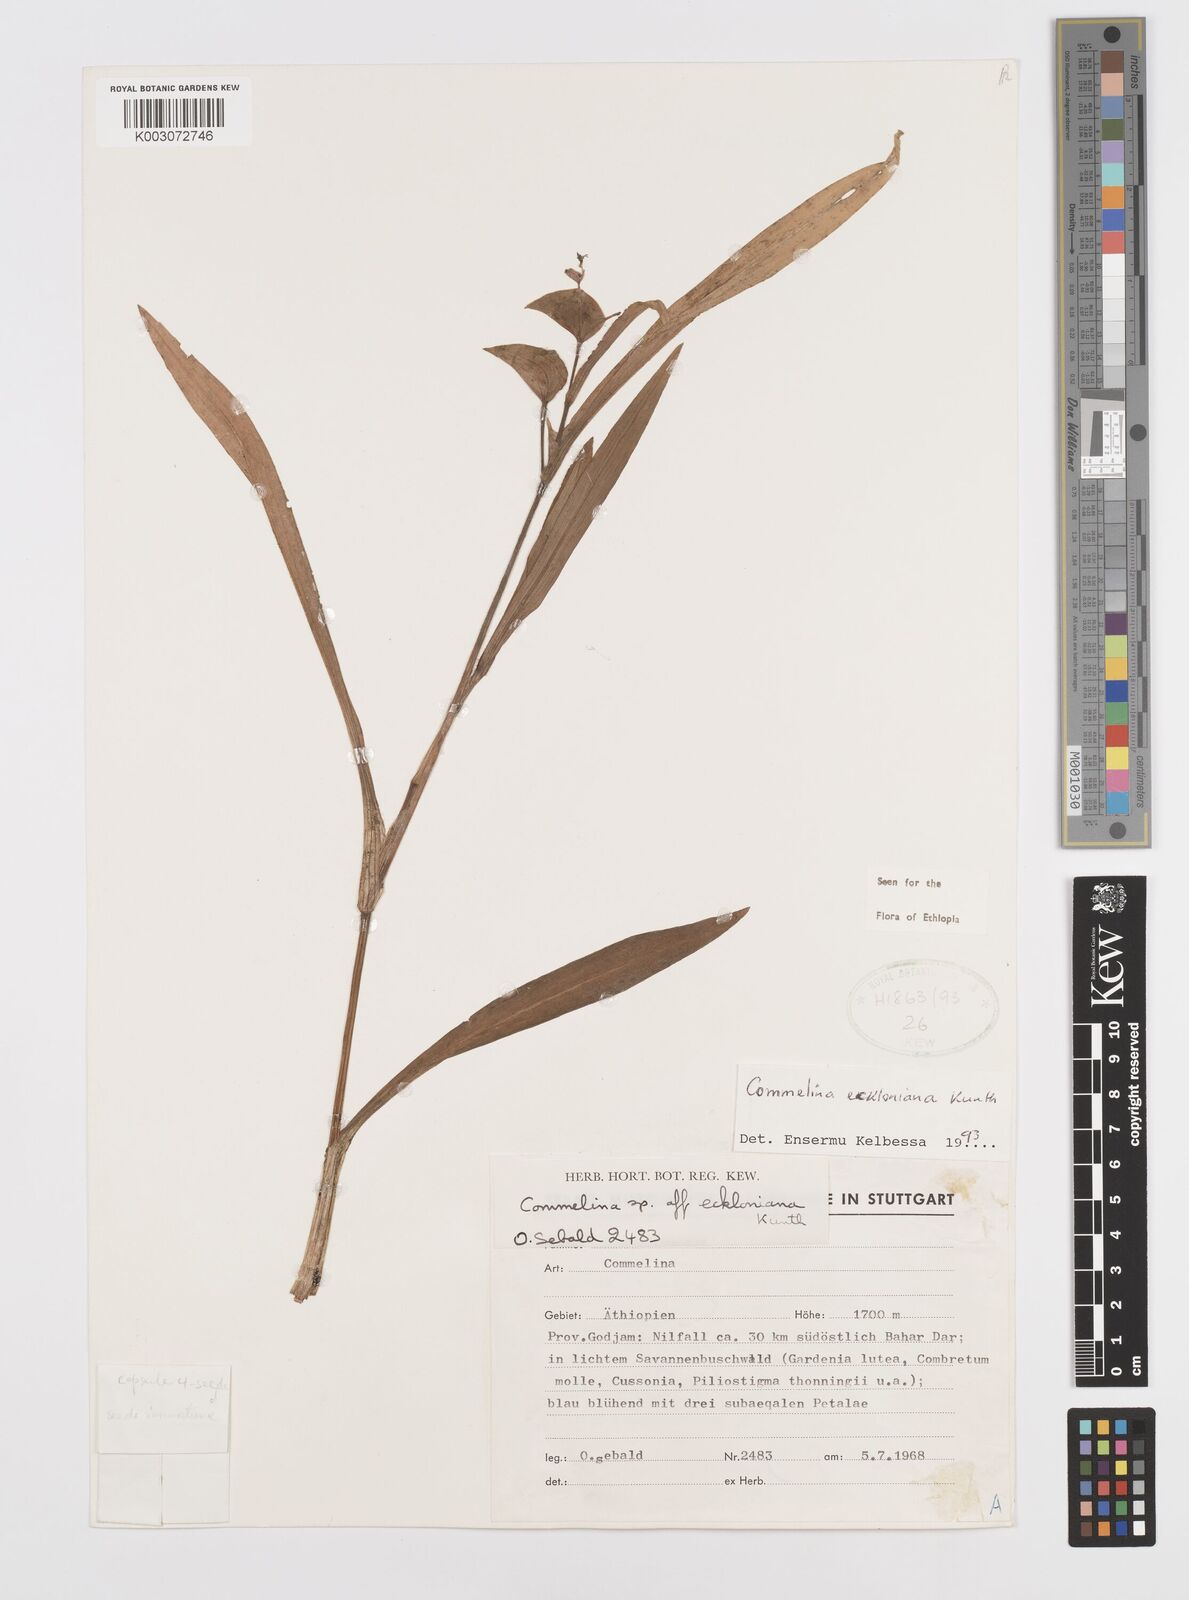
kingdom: Plantae
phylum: Tracheophyta
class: Liliopsida
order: Commelinales
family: Commelinaceae
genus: Commelina
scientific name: Commelina
